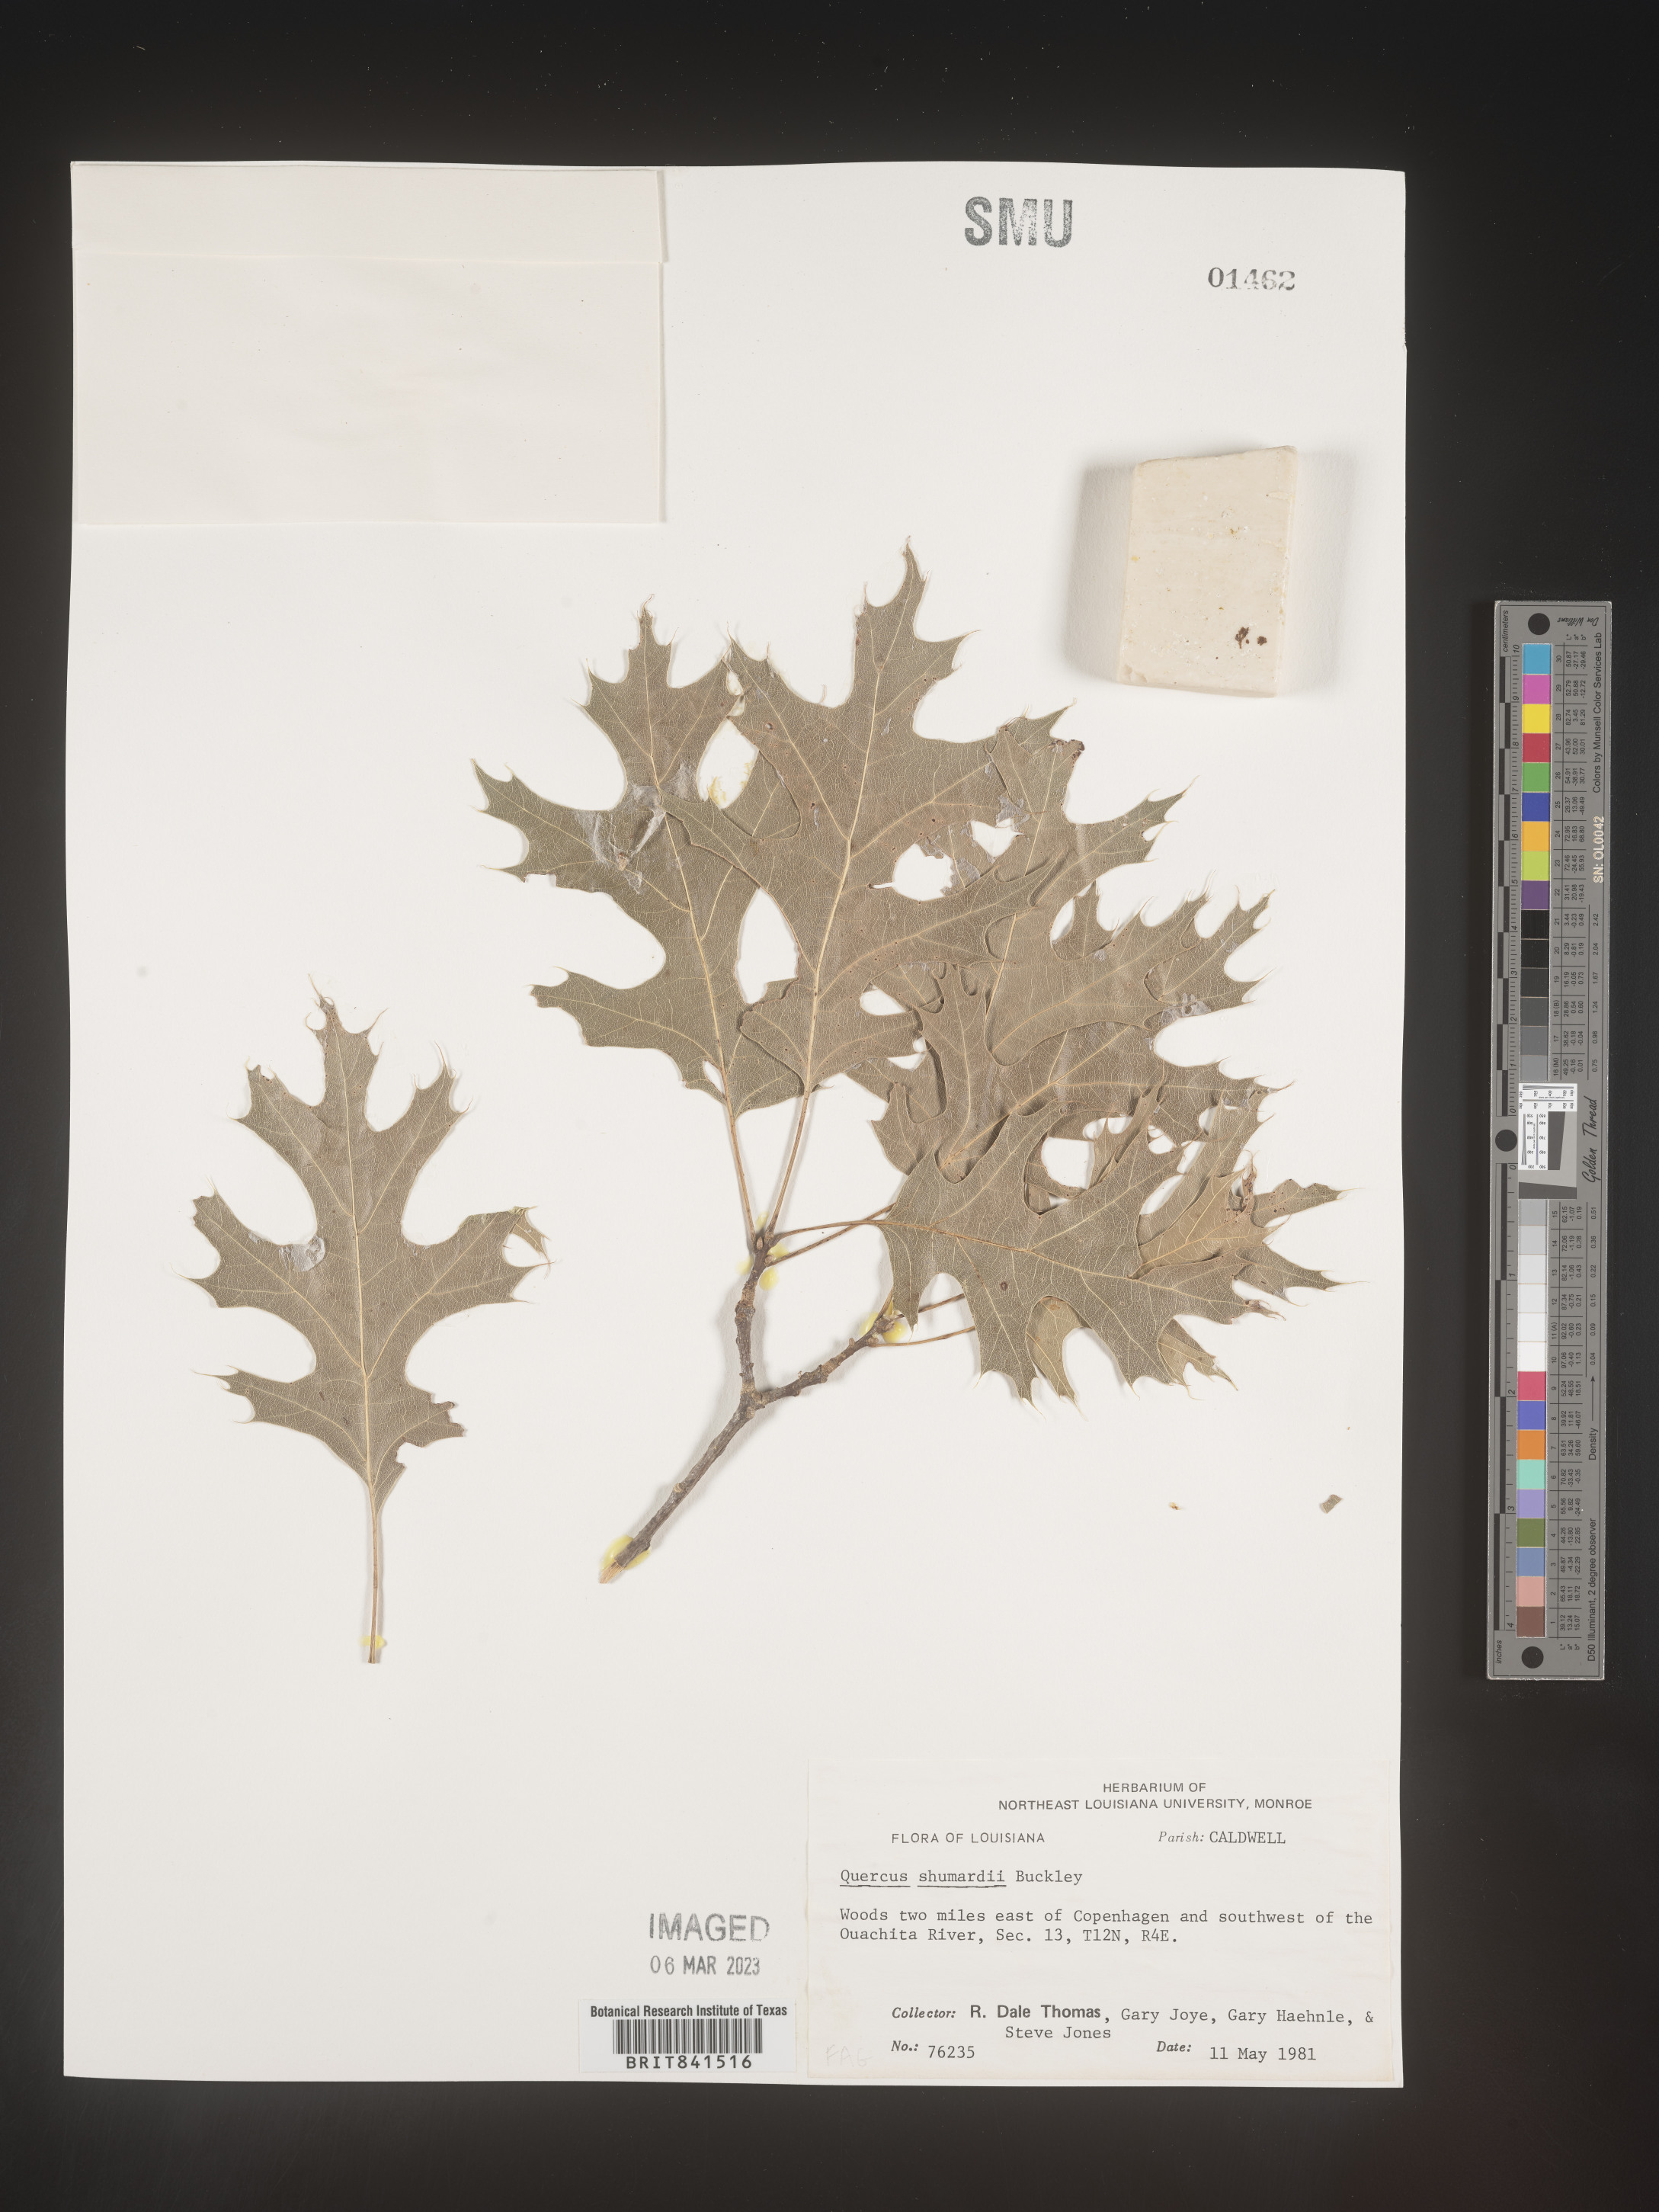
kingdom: Plantae
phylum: Tracheophyta
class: Magnoliopsida
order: Fagales
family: Fagaceae
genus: Quercus
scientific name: Quercus shumardii
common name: Shumard oak
